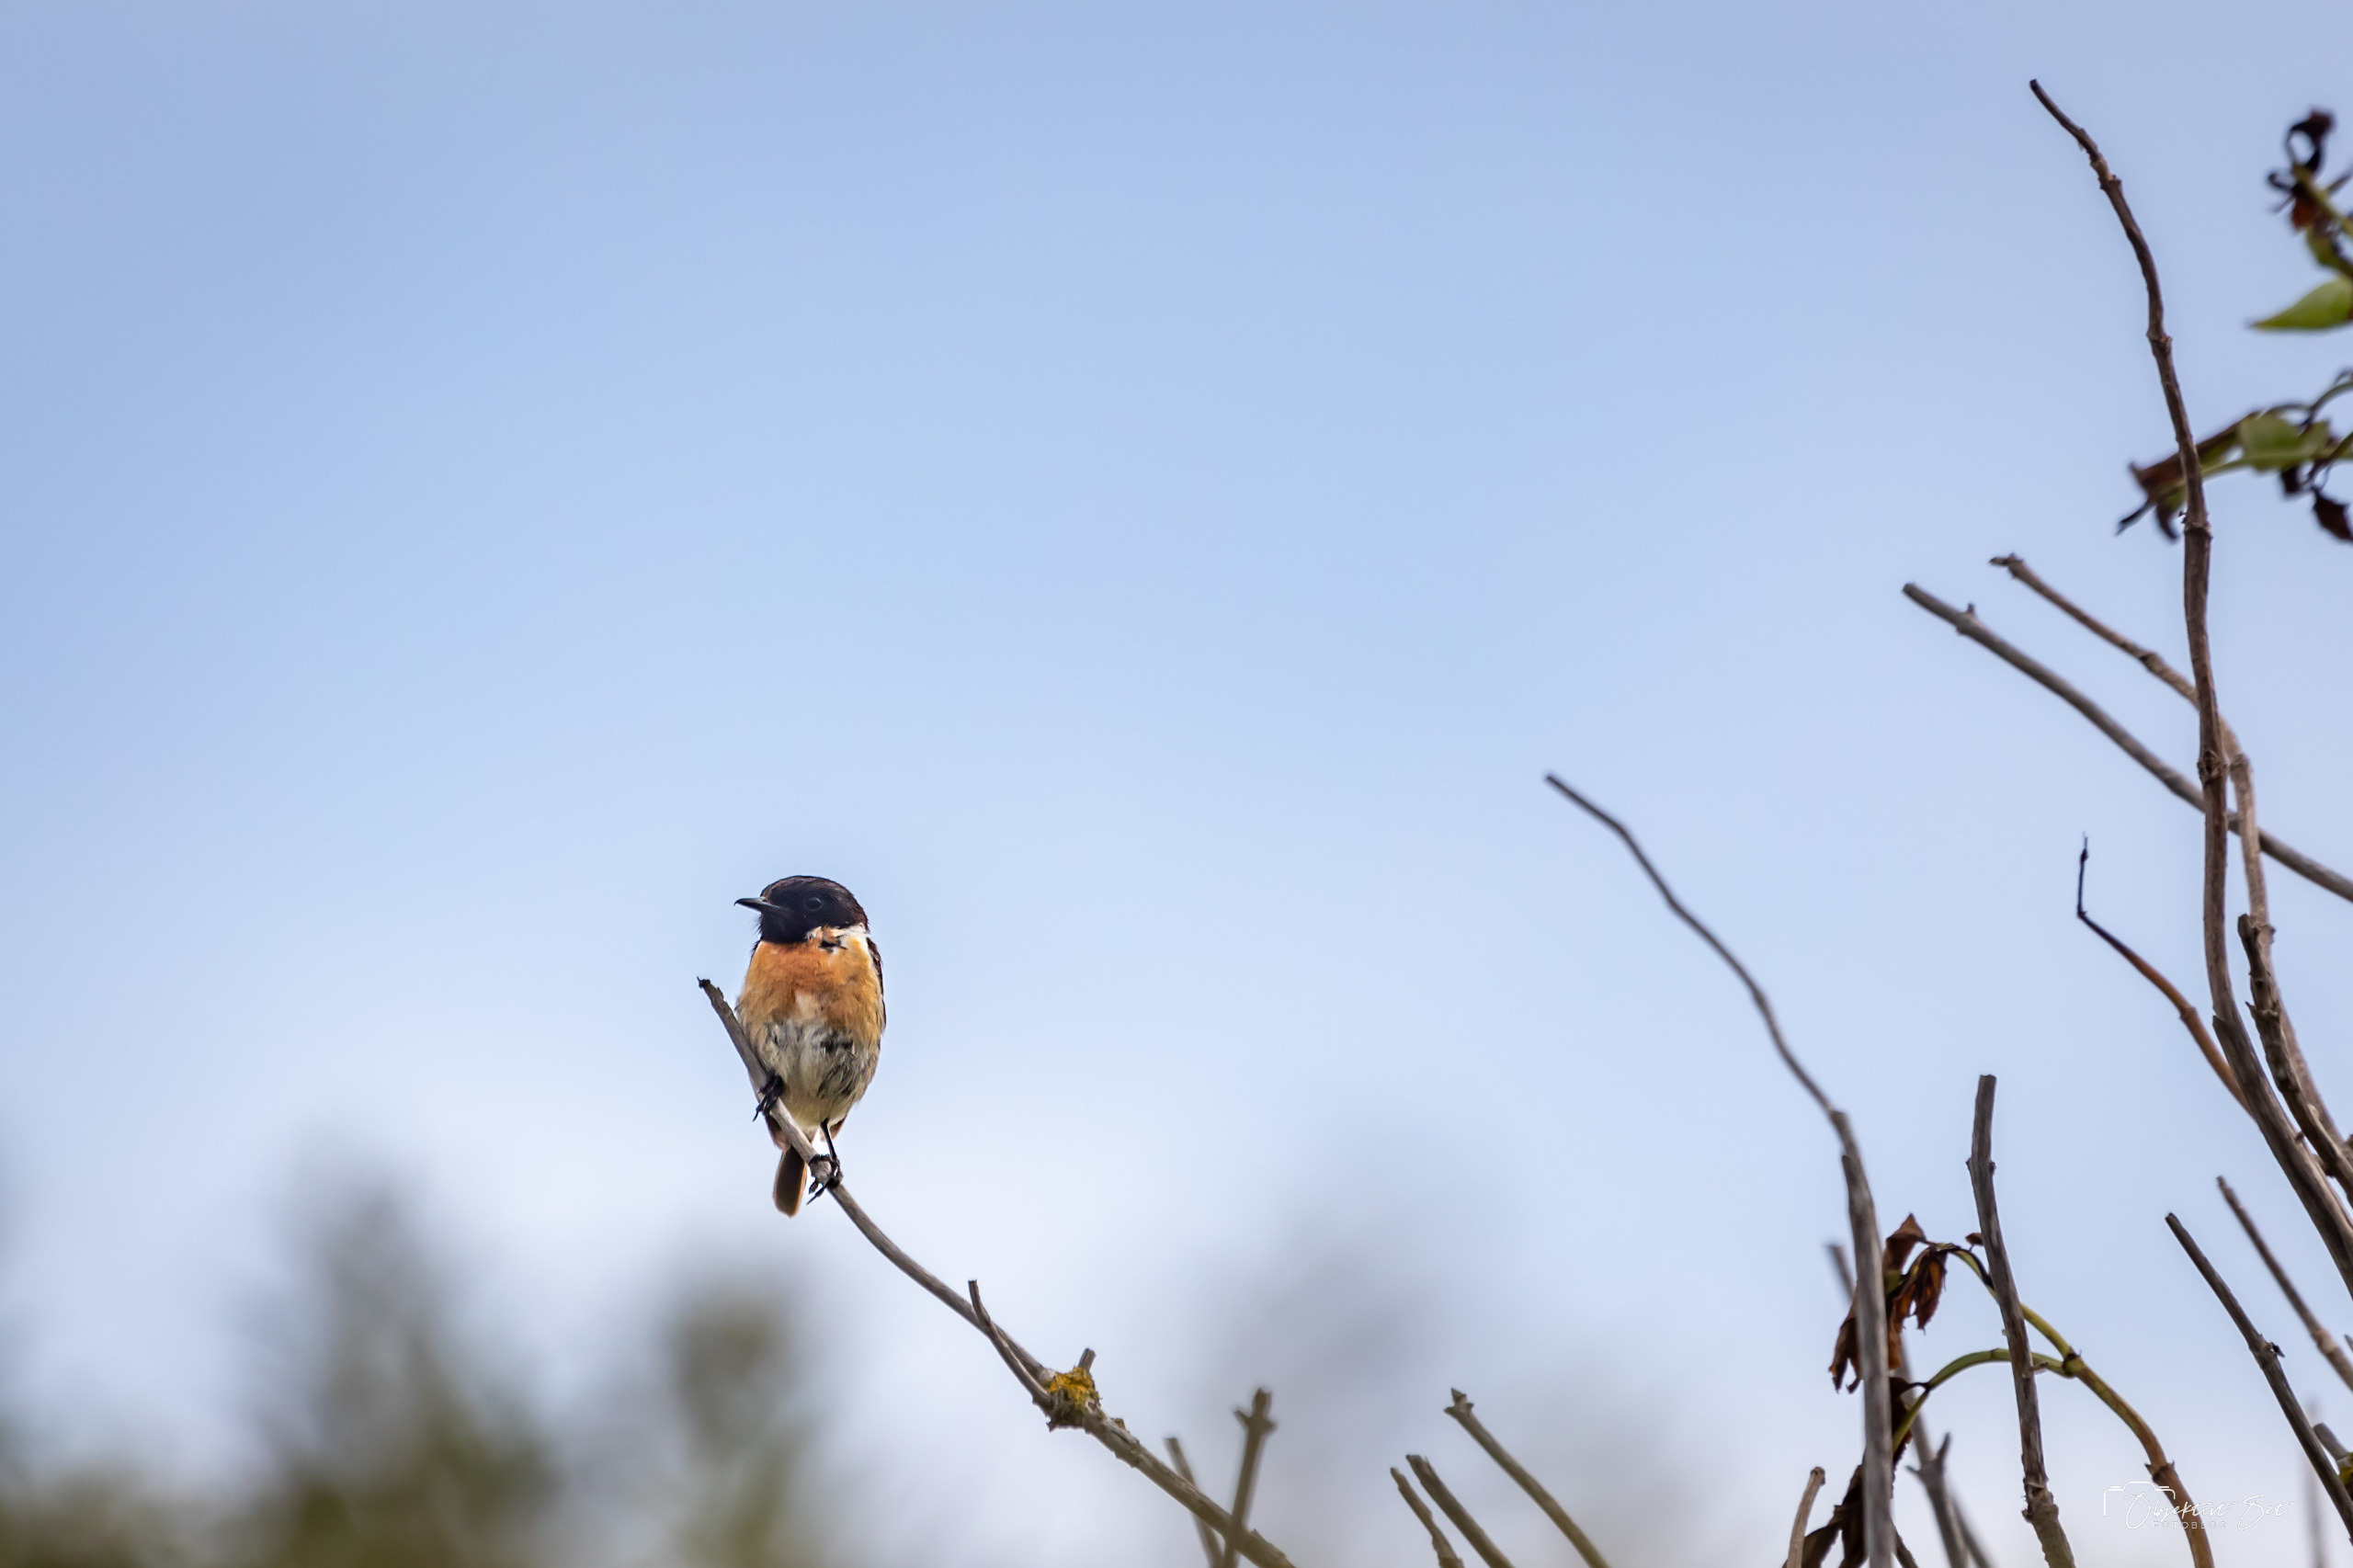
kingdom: Animalia
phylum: Chordata
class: Aves
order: Passeriformes
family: Muscicapidae
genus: Saxicola
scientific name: Saxicola rubicola
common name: Sortstrubet bynkefugl
